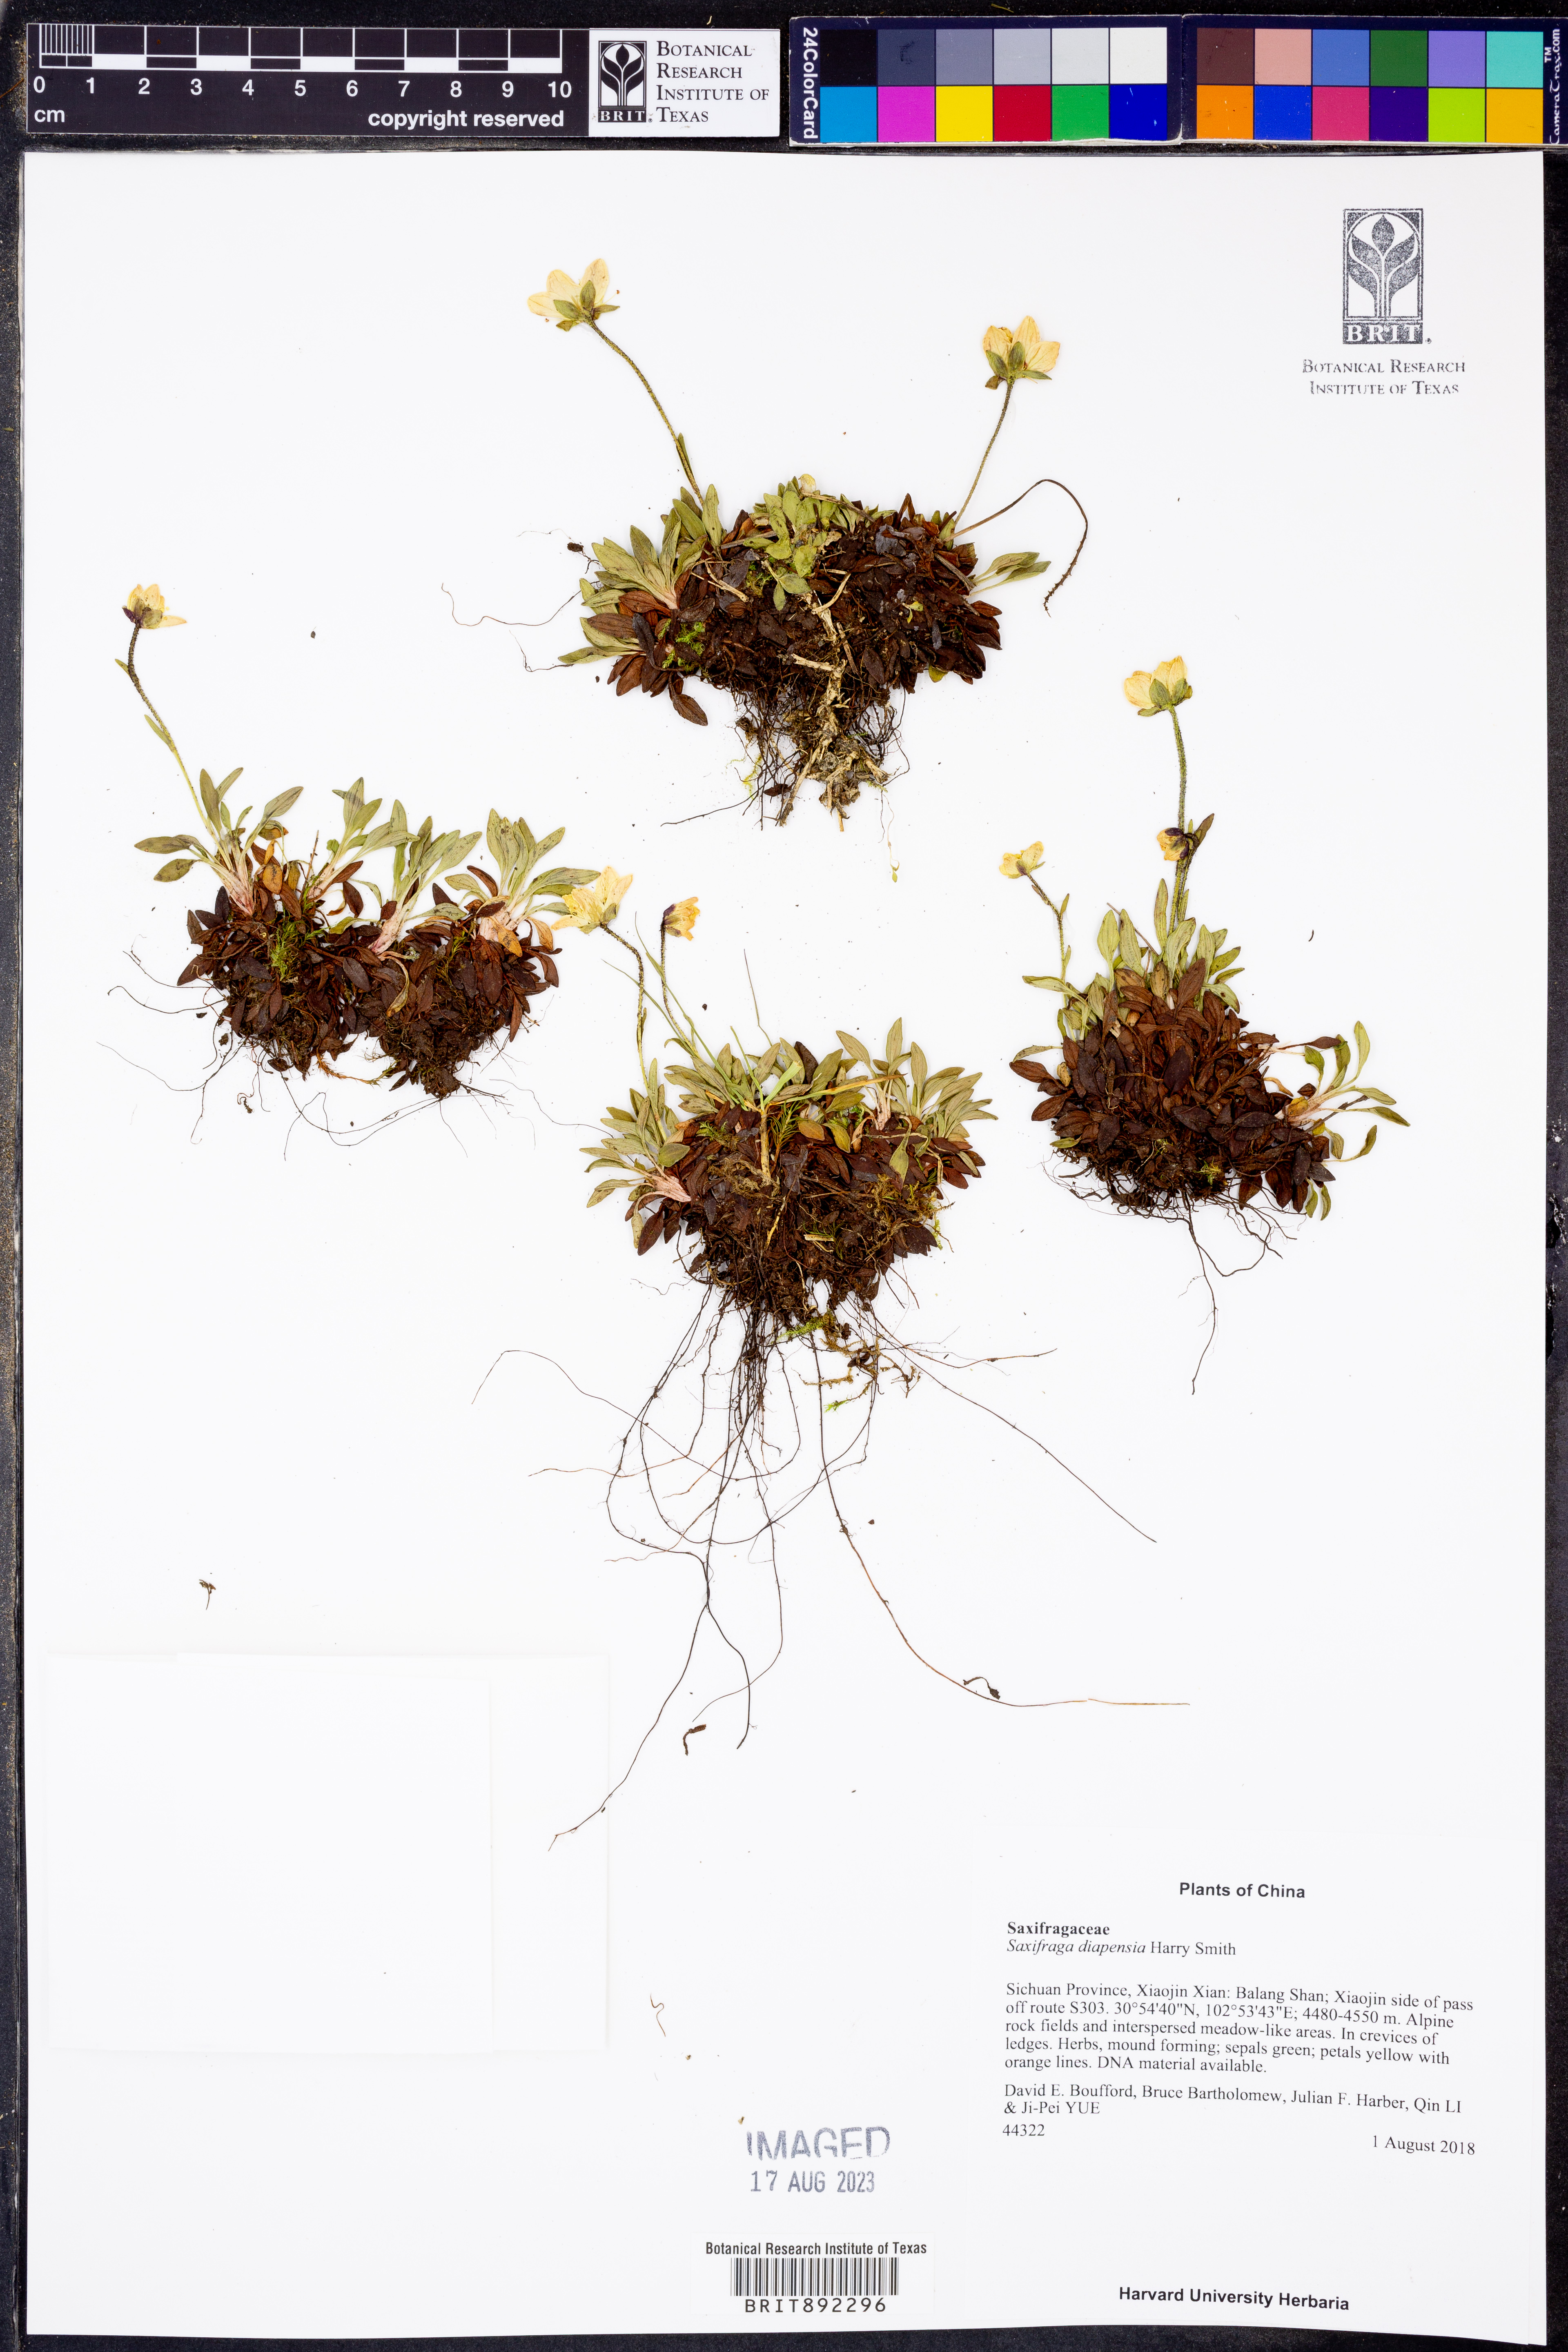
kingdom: Plantae
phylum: Tracheophyta
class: Magnoliopsida
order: Saxifragales
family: Saxifragaceae
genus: Saxifraga
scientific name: Saxifraga diapensia
